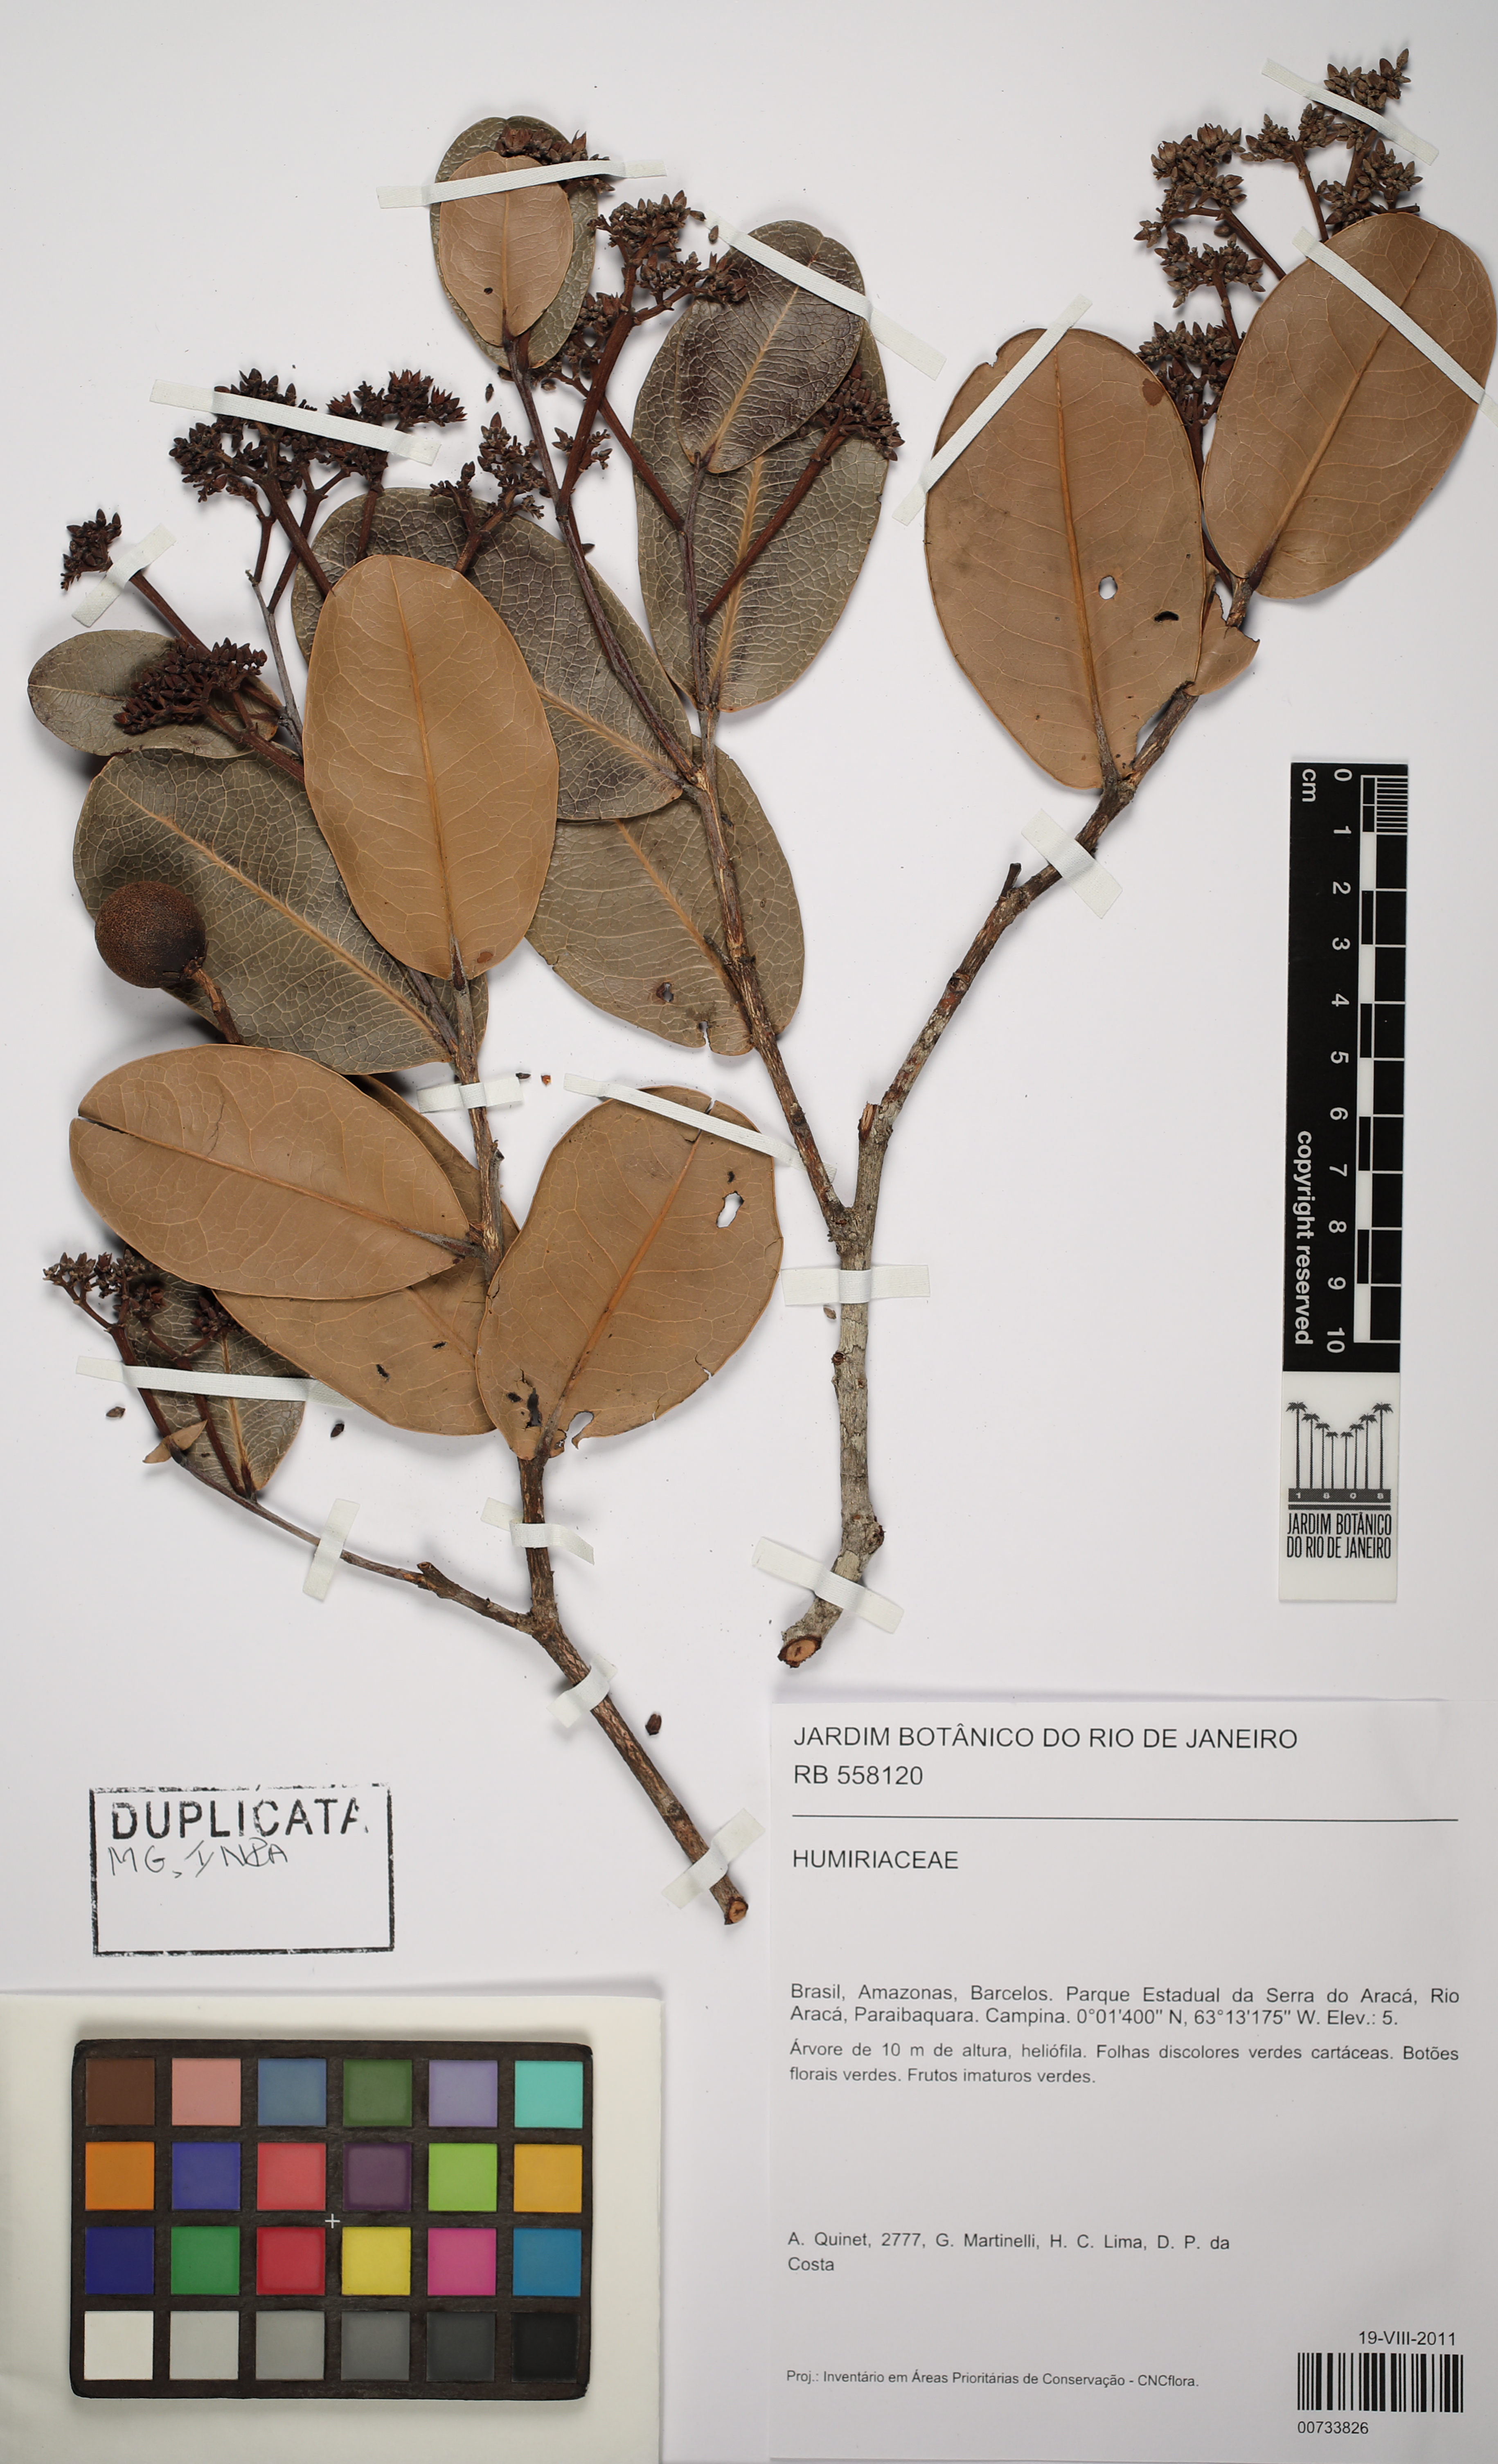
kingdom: Plantae
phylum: Tracheophyta
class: Magnoliopsida
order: Malpighiales
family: Humiriaceae
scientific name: Humiriaceae
